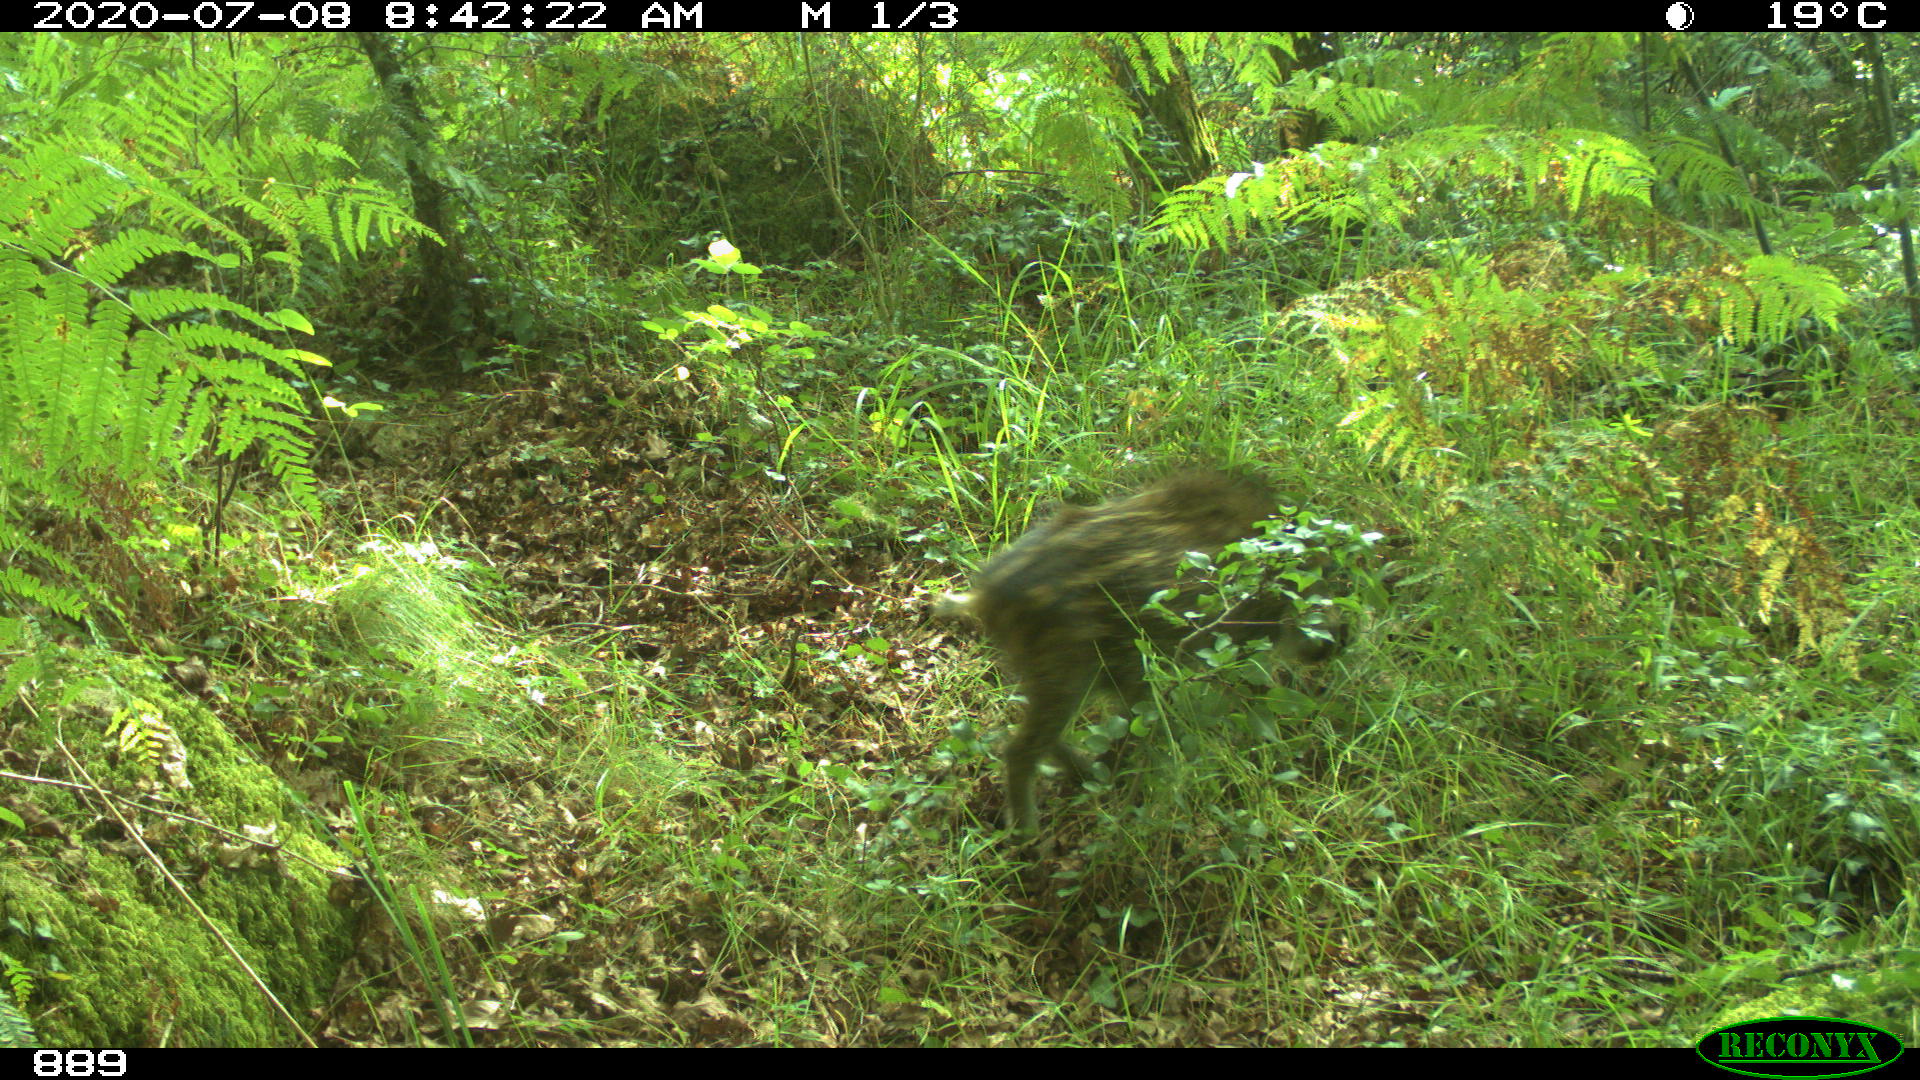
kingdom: Animalia
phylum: Chordata
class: Mammalia
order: Artiodactyla
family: Suidae
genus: Sus
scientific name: Sus scrofa
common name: Wild boar
